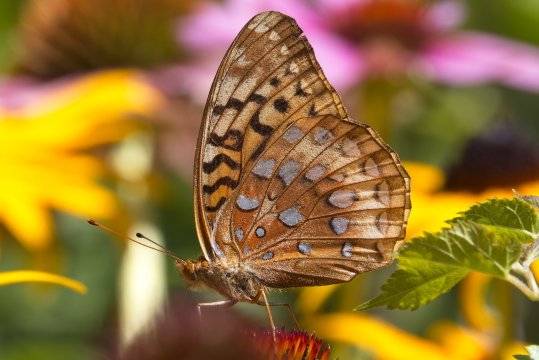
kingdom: Animalia
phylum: Arthropoda
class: Insecta
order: Lepidoptera
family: Nymphalidae
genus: Speyeria
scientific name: Speyeria cybele
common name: Great Spangled Fritillary
